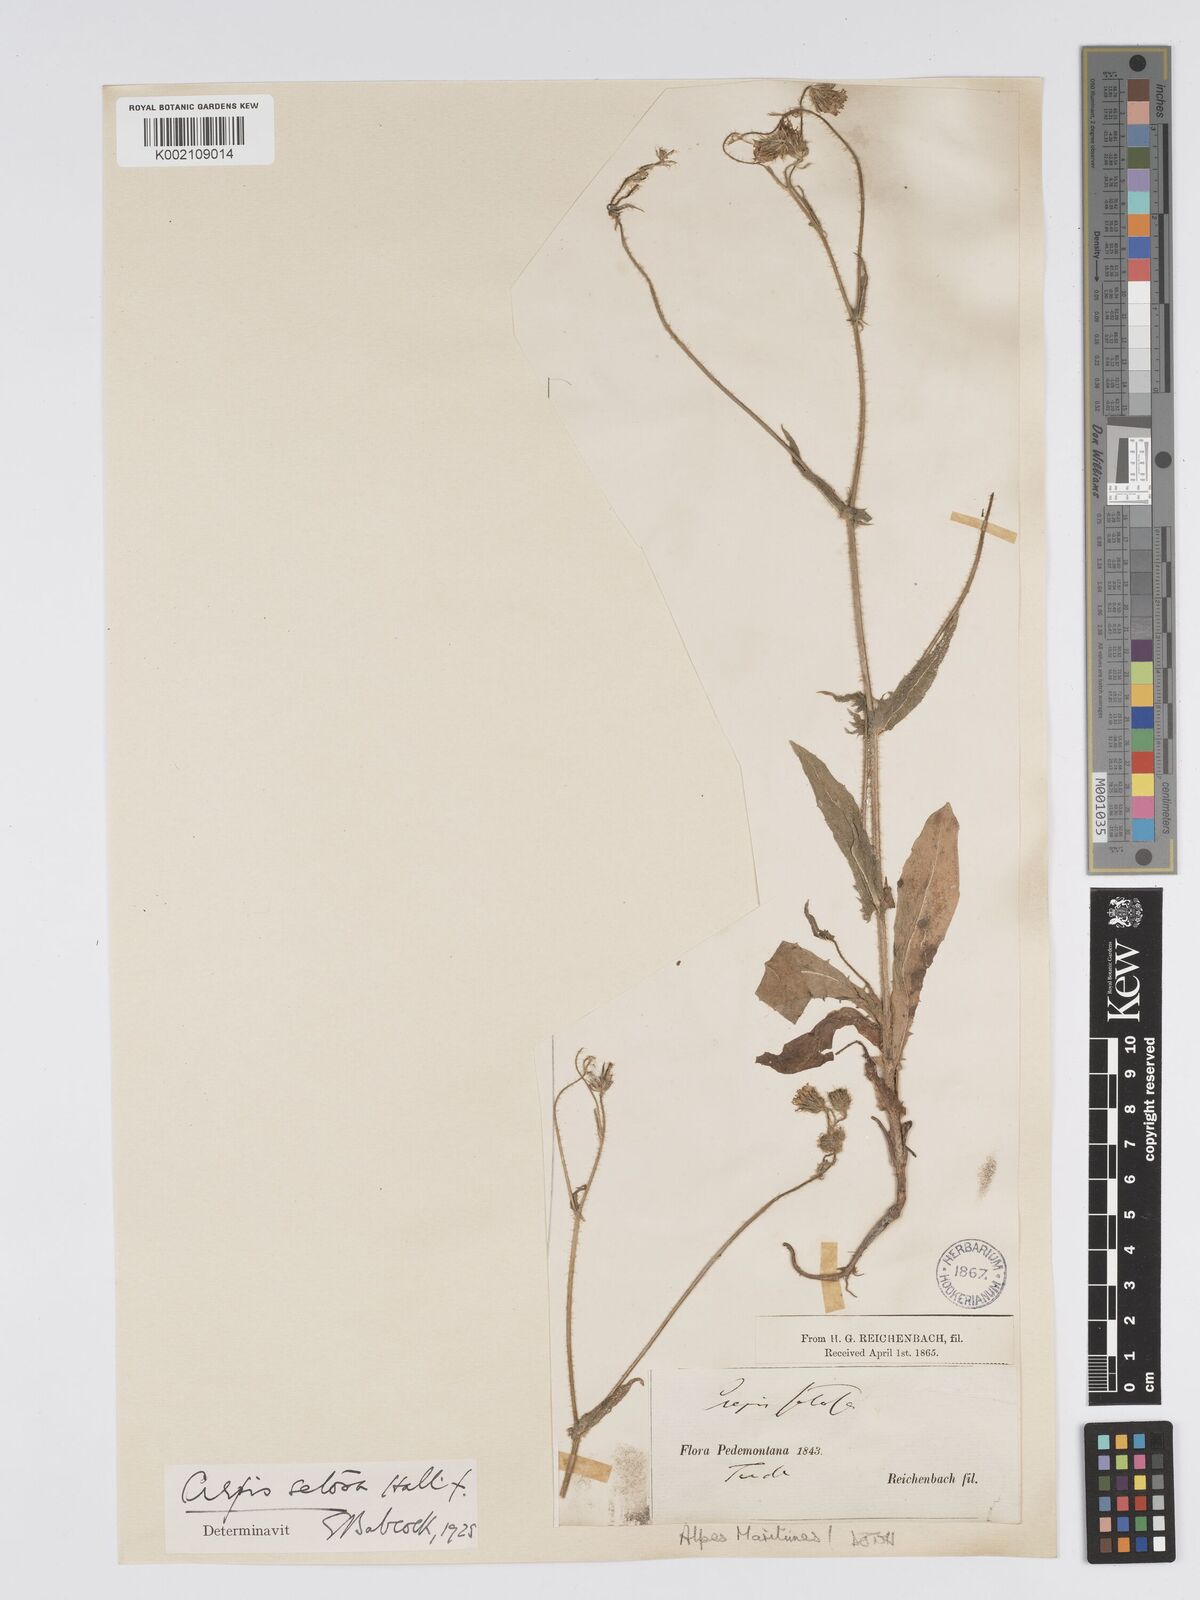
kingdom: Plantae
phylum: Tracheophyta
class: Magnoliopsida
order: Asterales
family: Asteraceae
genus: Crepis
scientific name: Crepis setosa
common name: Bristly hawk's-beard
